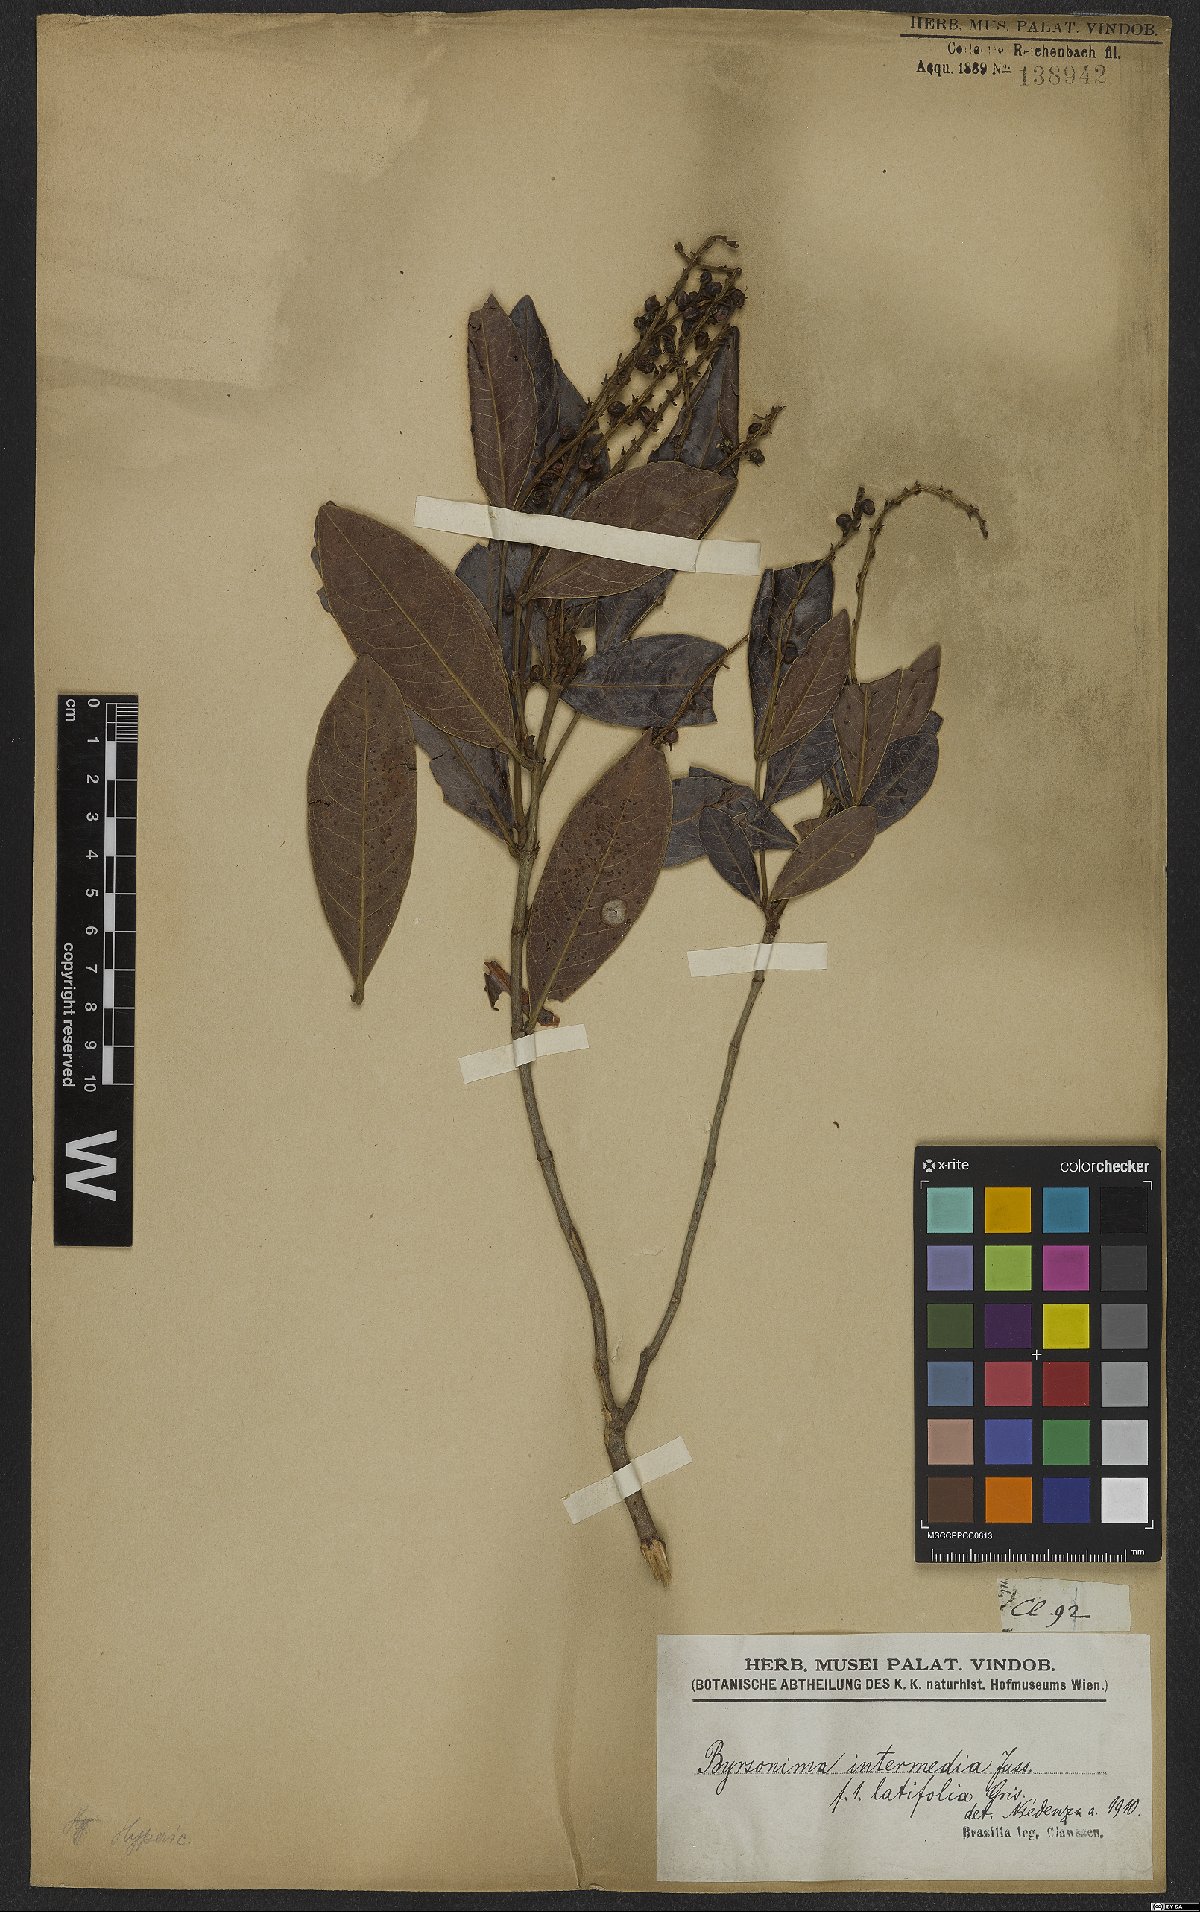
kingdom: Plantae
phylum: Tracheophyta
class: Magnoliopsida
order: Malpighiales
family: Malpighiaceae
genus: Byrsonima
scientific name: Byrsonima intermedia
